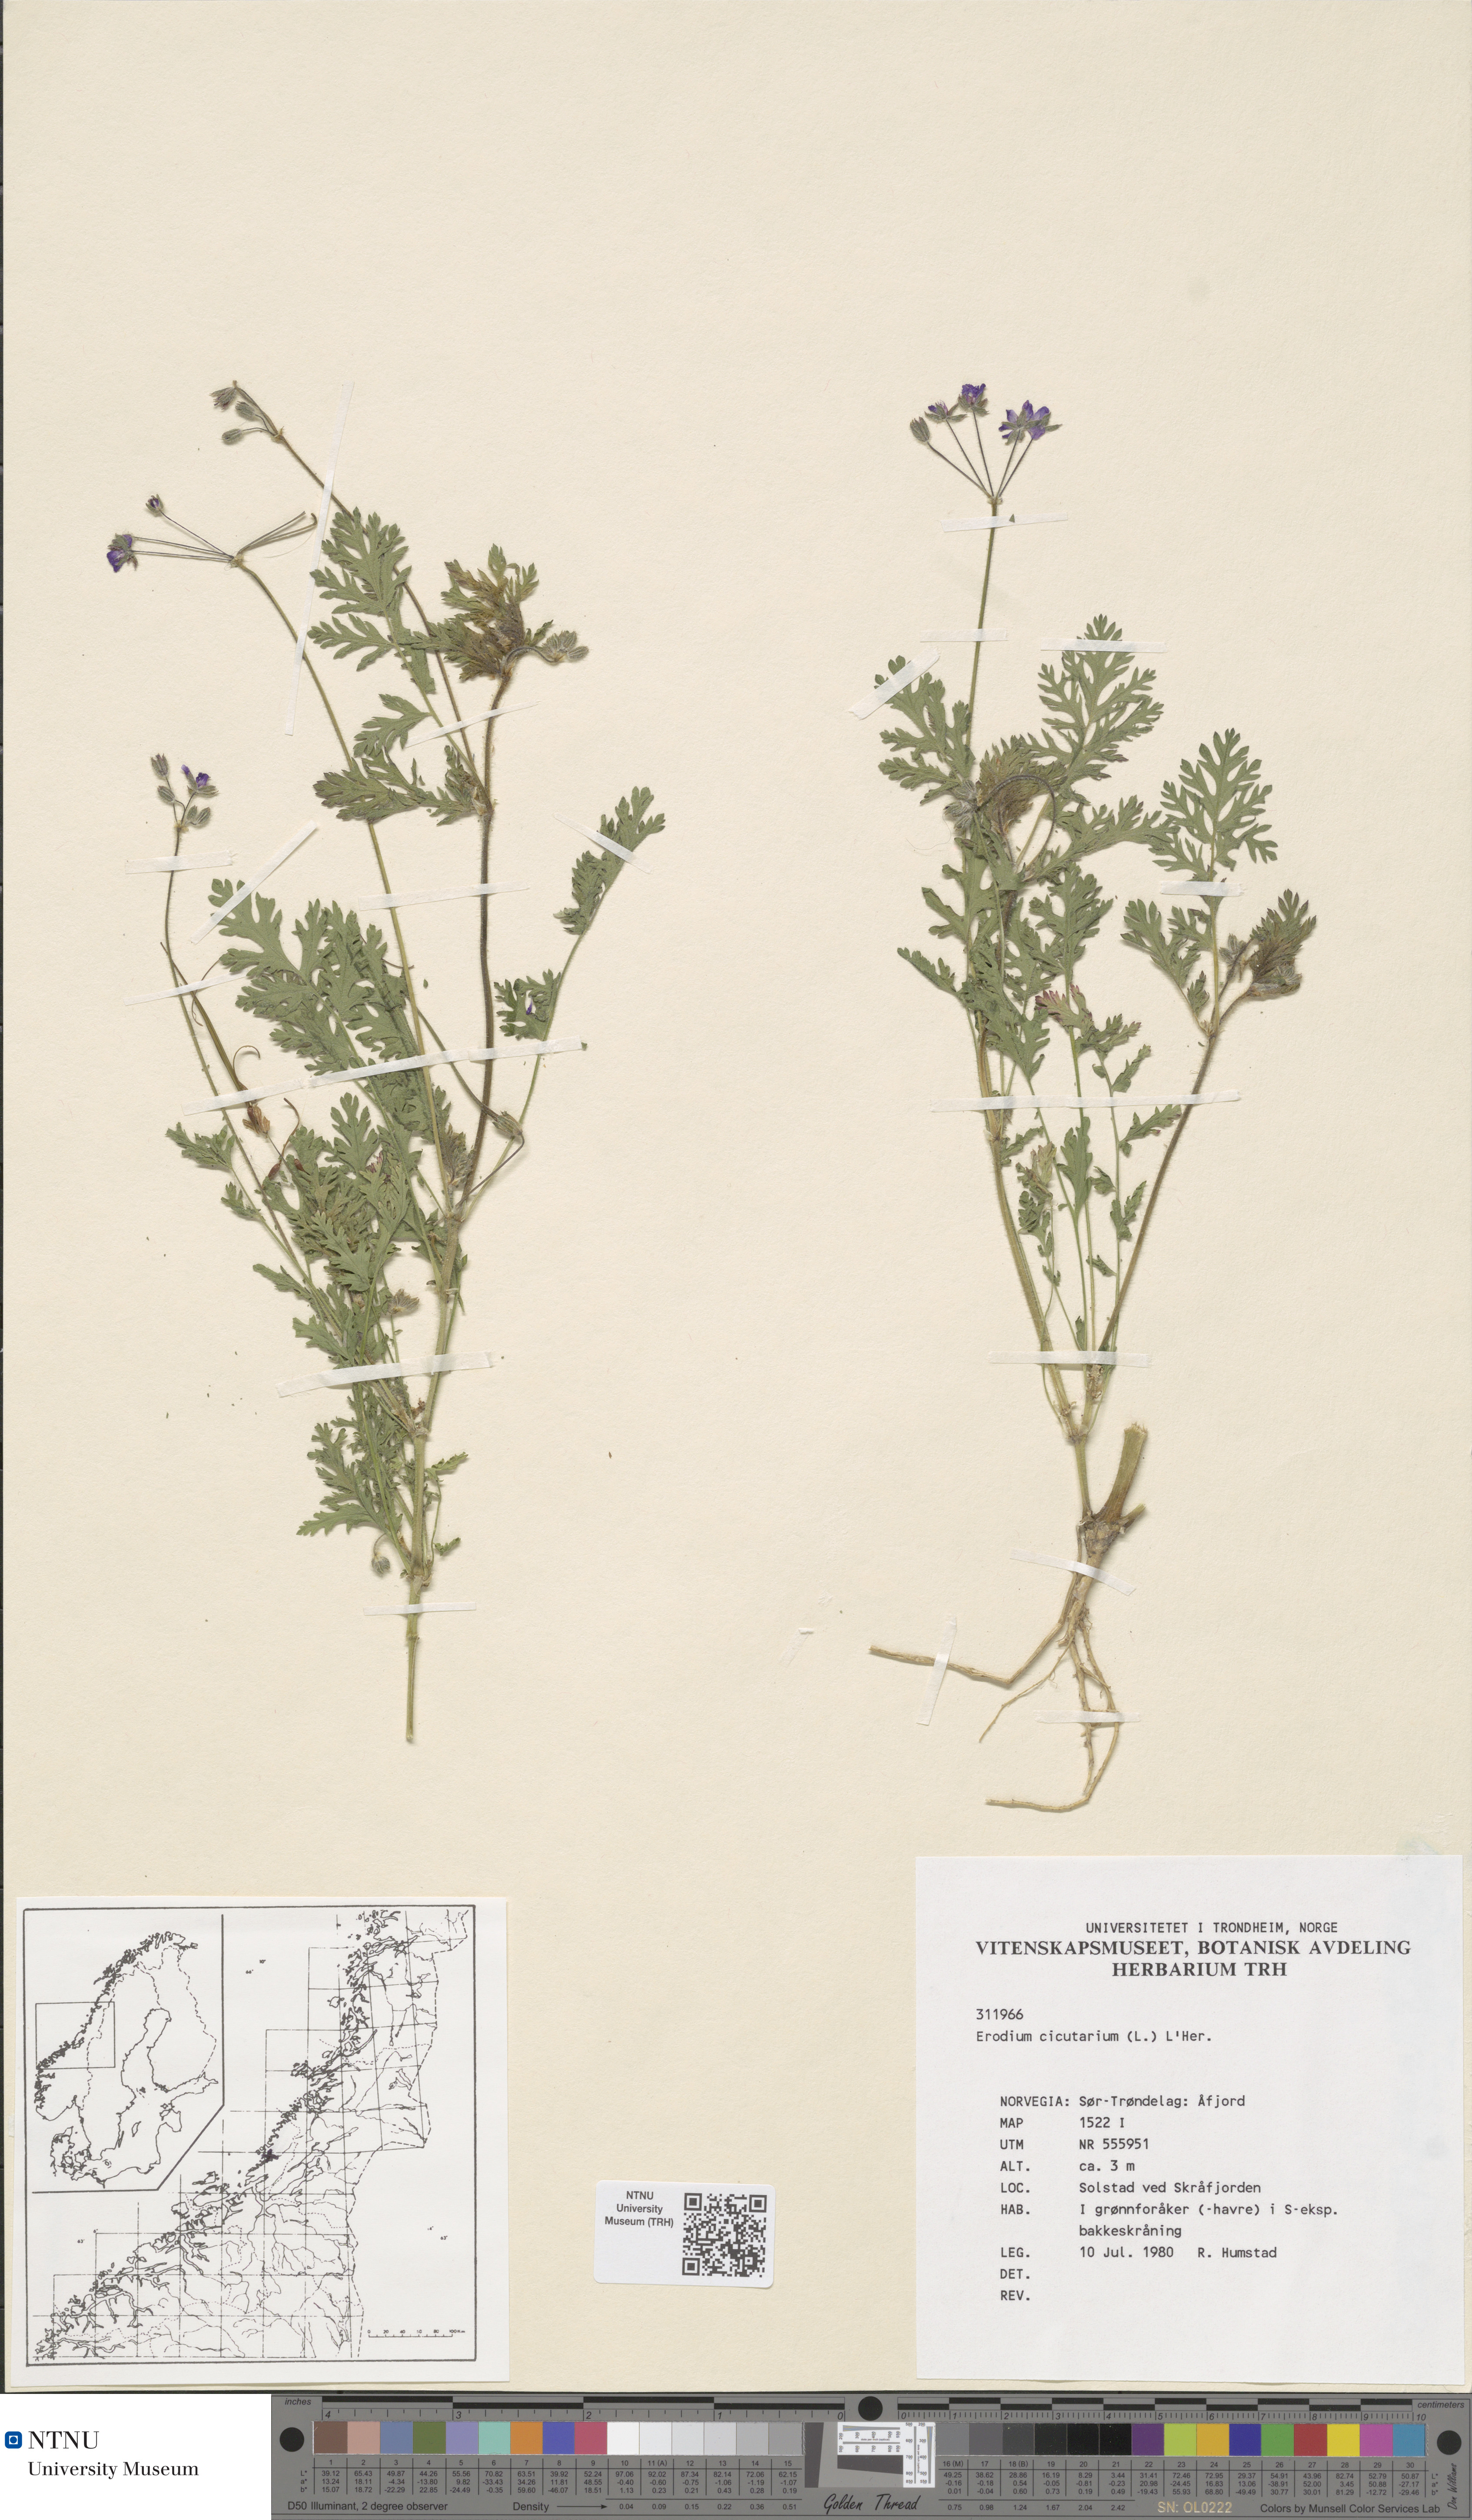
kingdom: Plantae
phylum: Tracheophyta
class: Magnoliopsida
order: Geraniales
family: Geraniaceae
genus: Erodium
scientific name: Erodium cicutarium
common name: Common stork's-bill
